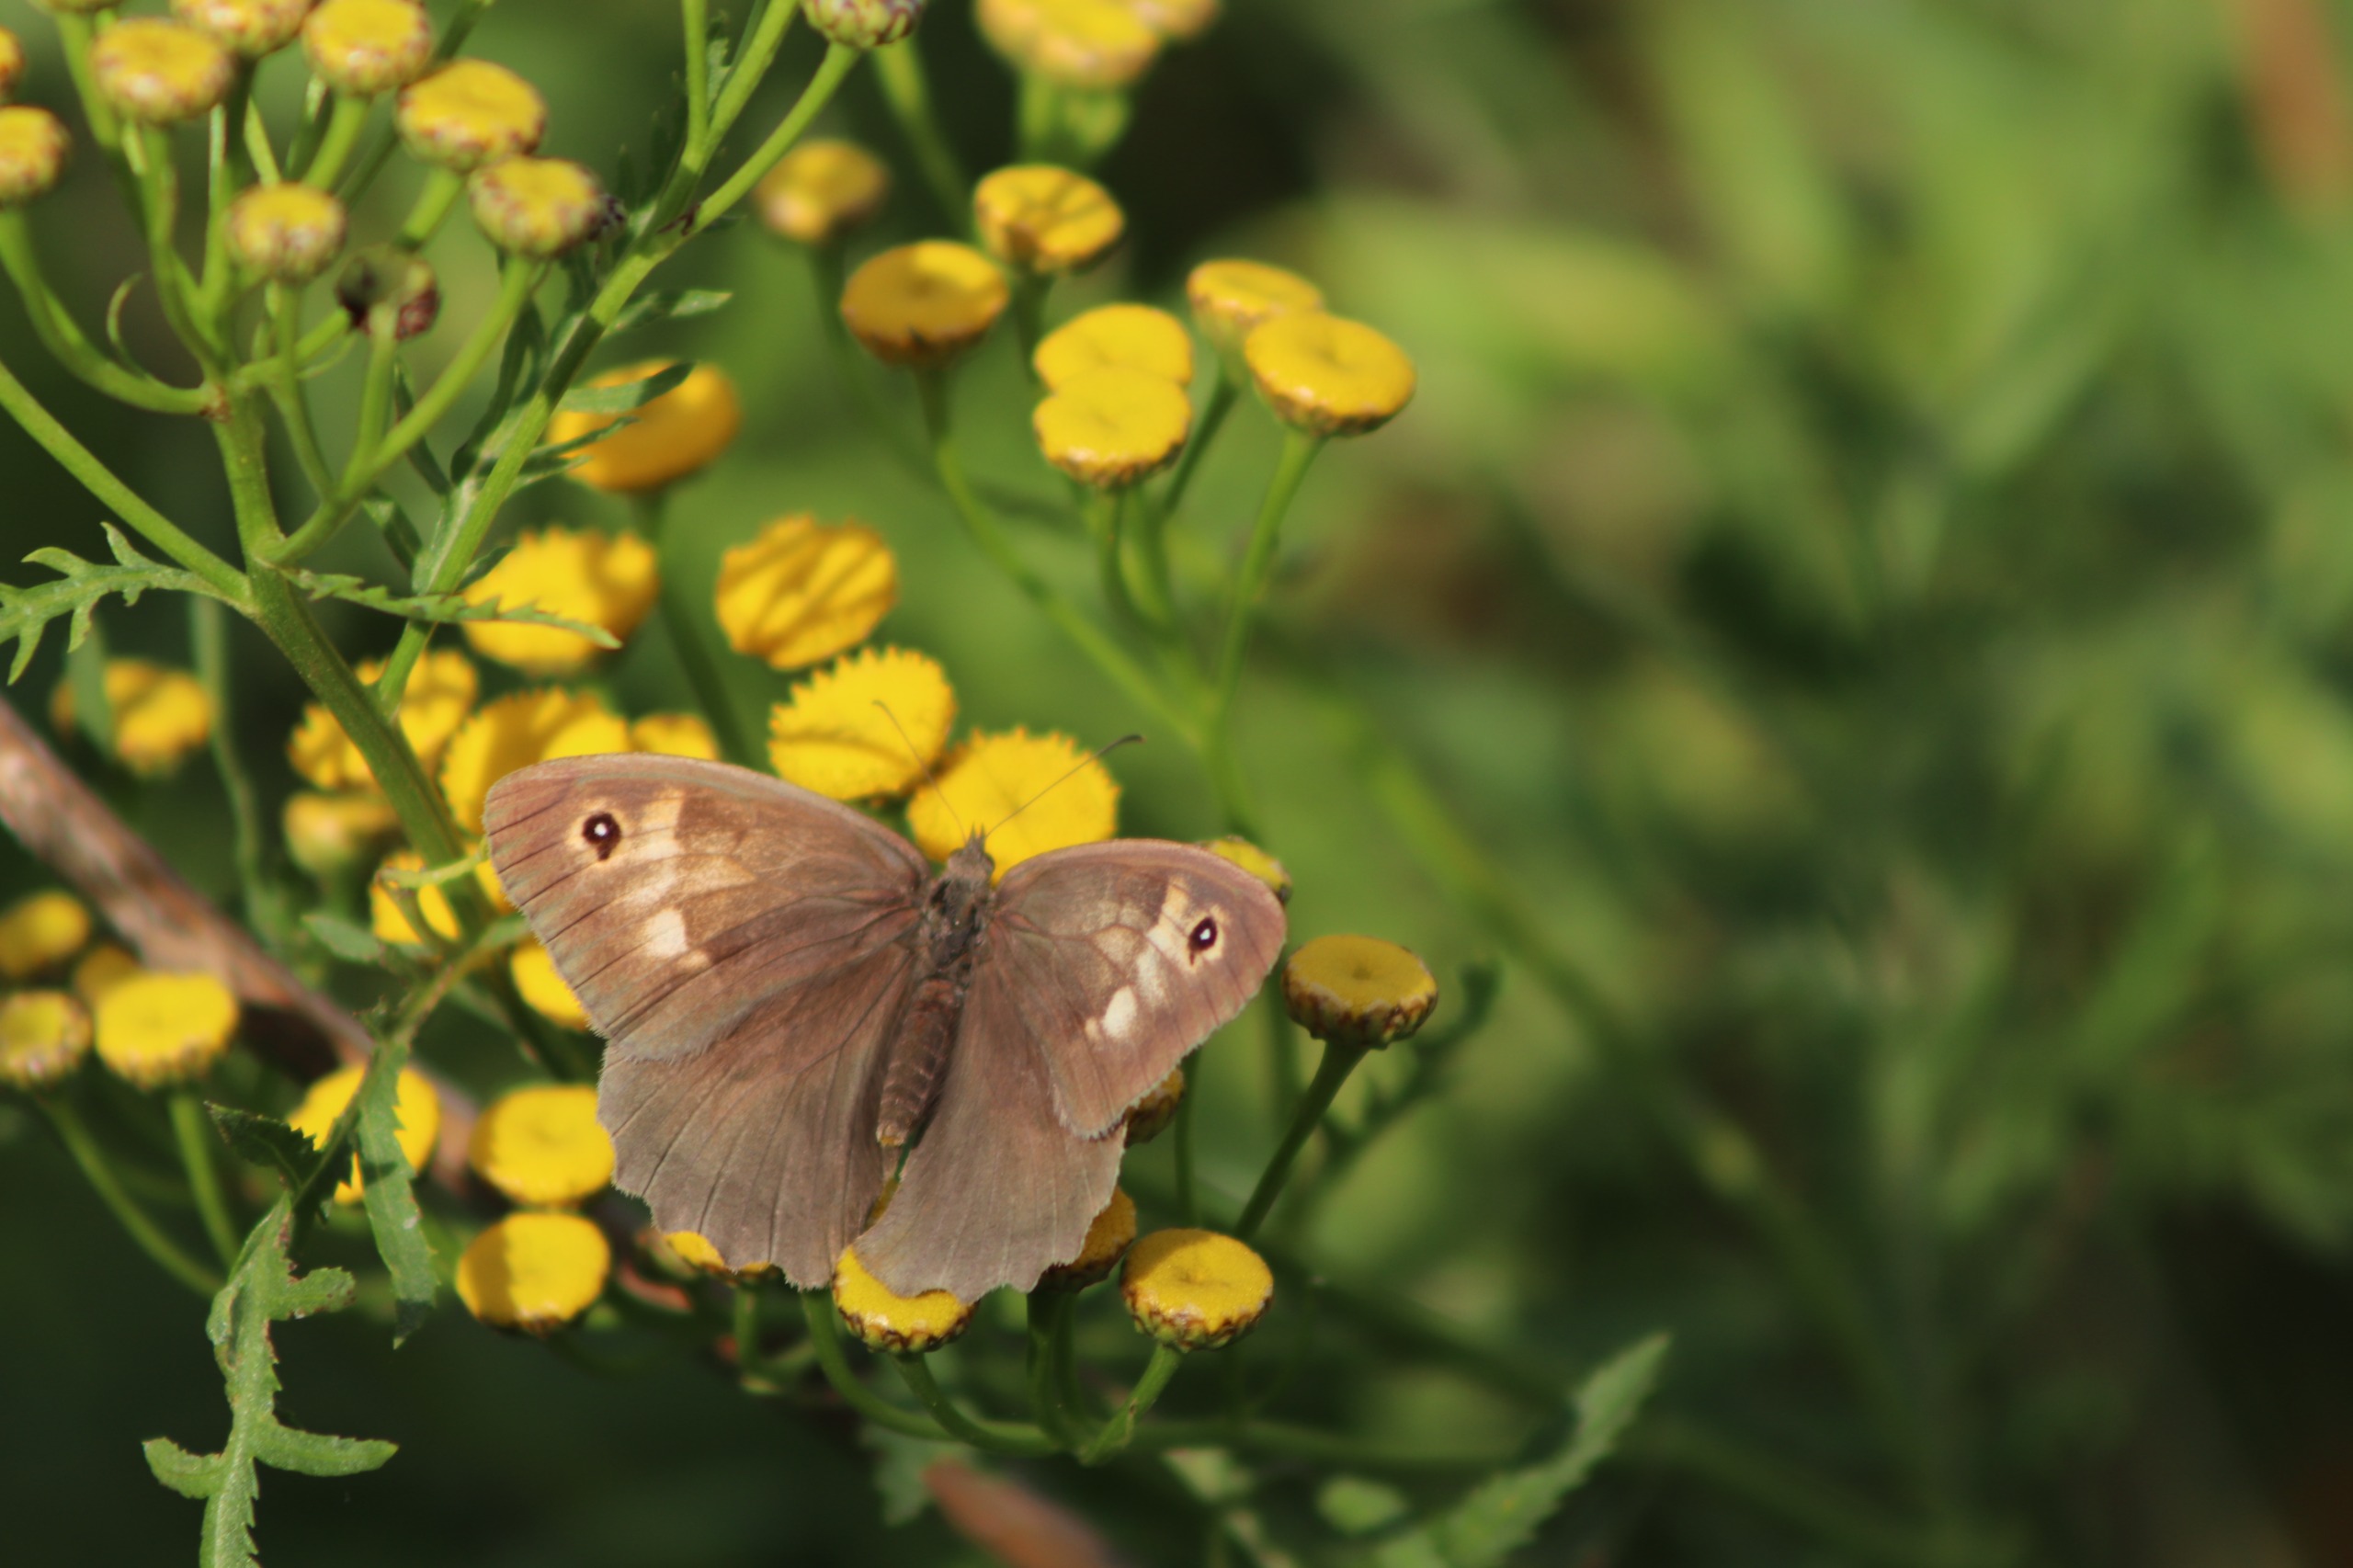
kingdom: Animalia
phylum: Arthropoda
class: Insecta
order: Lepidoptera
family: Nymphalidae
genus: Maniola
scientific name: Maniola jurtina
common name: Græsrandøje
